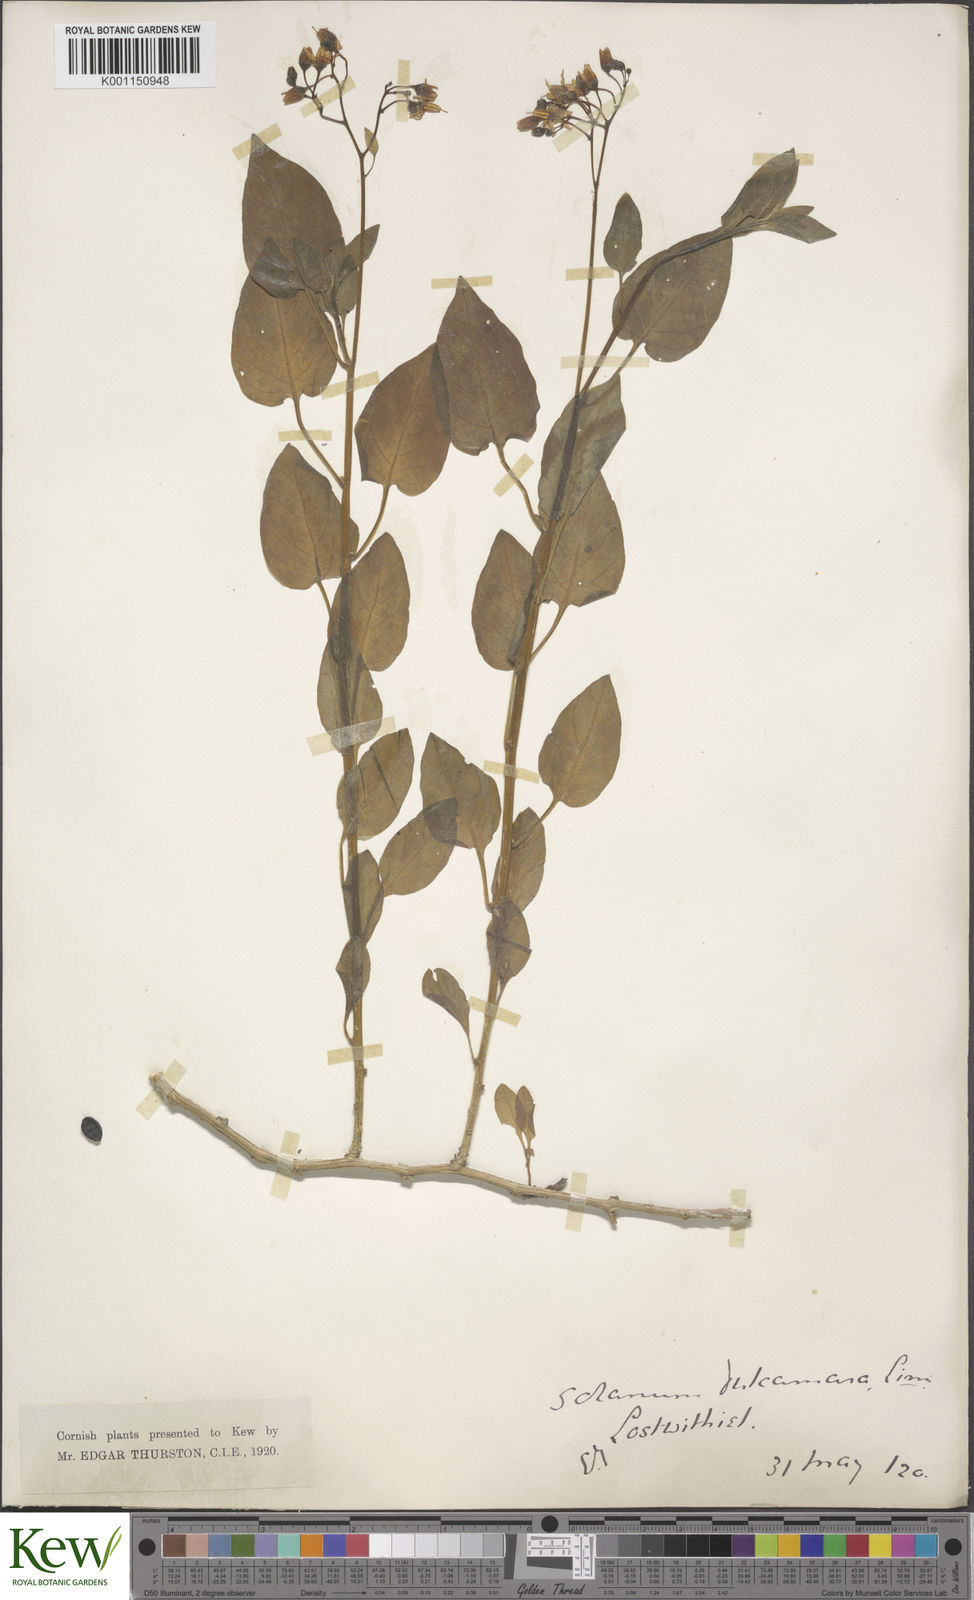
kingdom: Plantae
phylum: Tracheophyta
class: Magnoliopsida
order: Solanales
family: Solanaceae
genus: Solanum
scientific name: Solanum dulcamara
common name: Climbing nightshade
